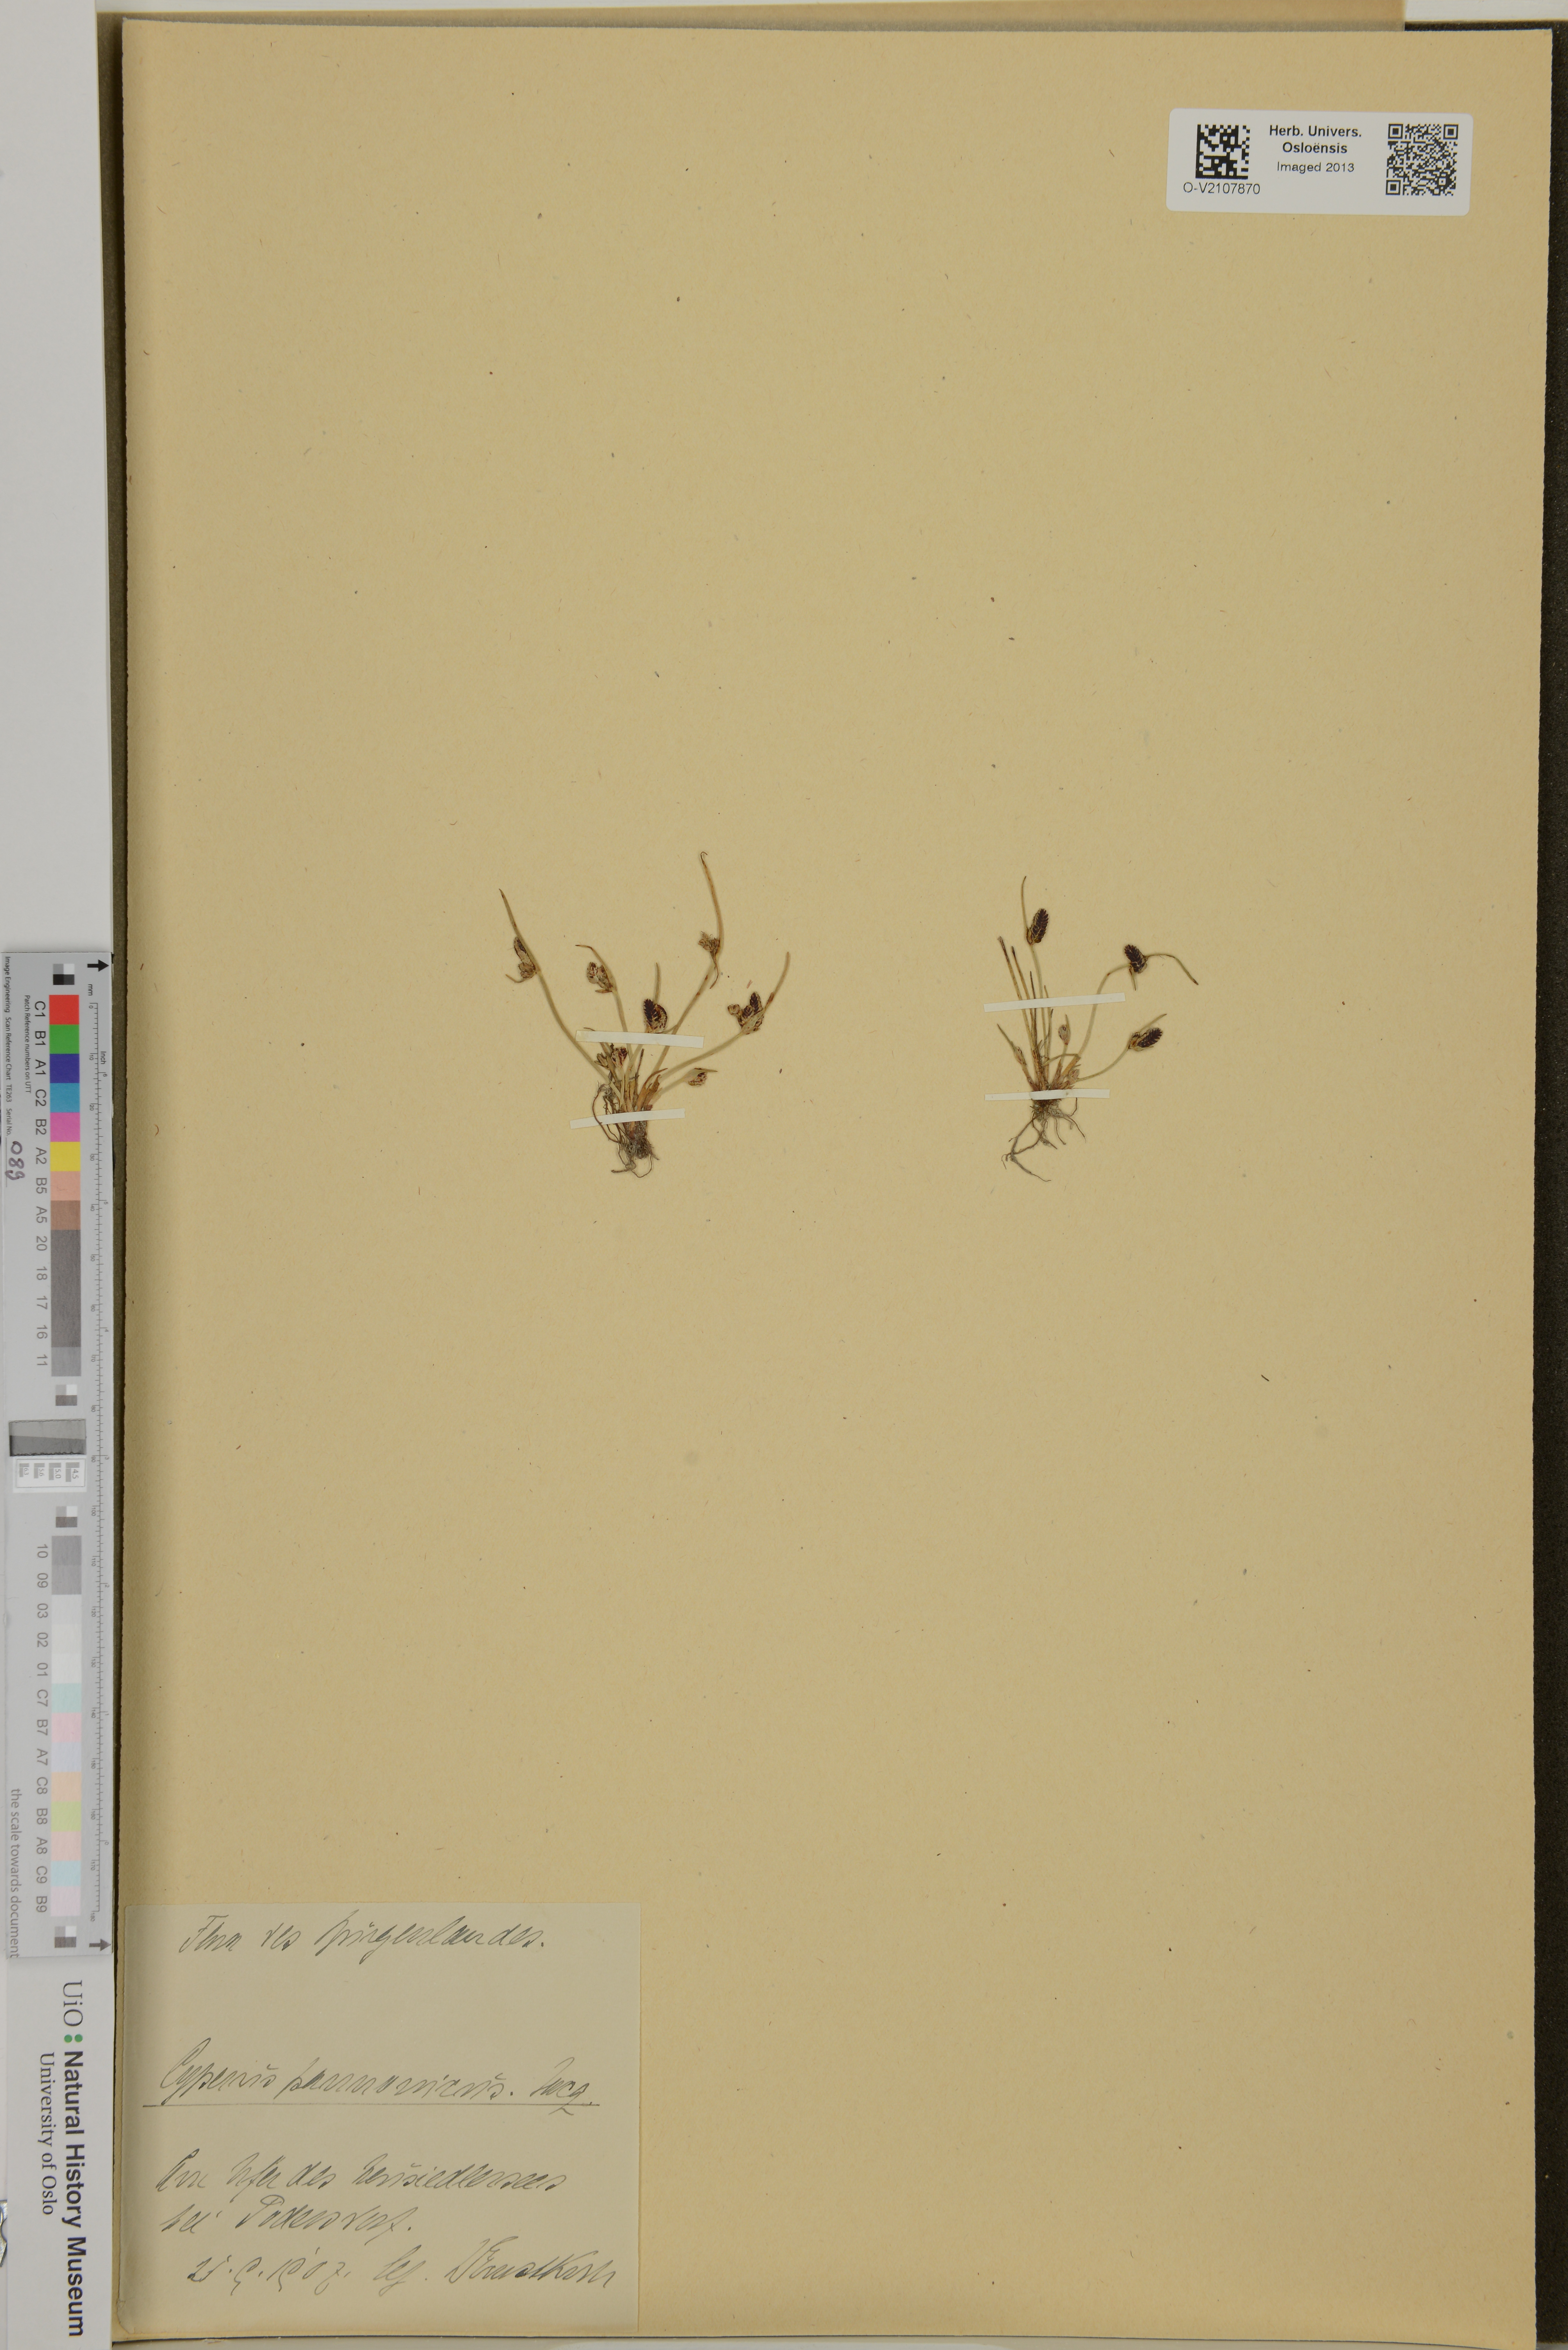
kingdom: Plantae
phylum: Tracheophyta
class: Liliopsida
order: Poales
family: Cyperaceae
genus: Cyperus
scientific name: Cyperus pannonicus
